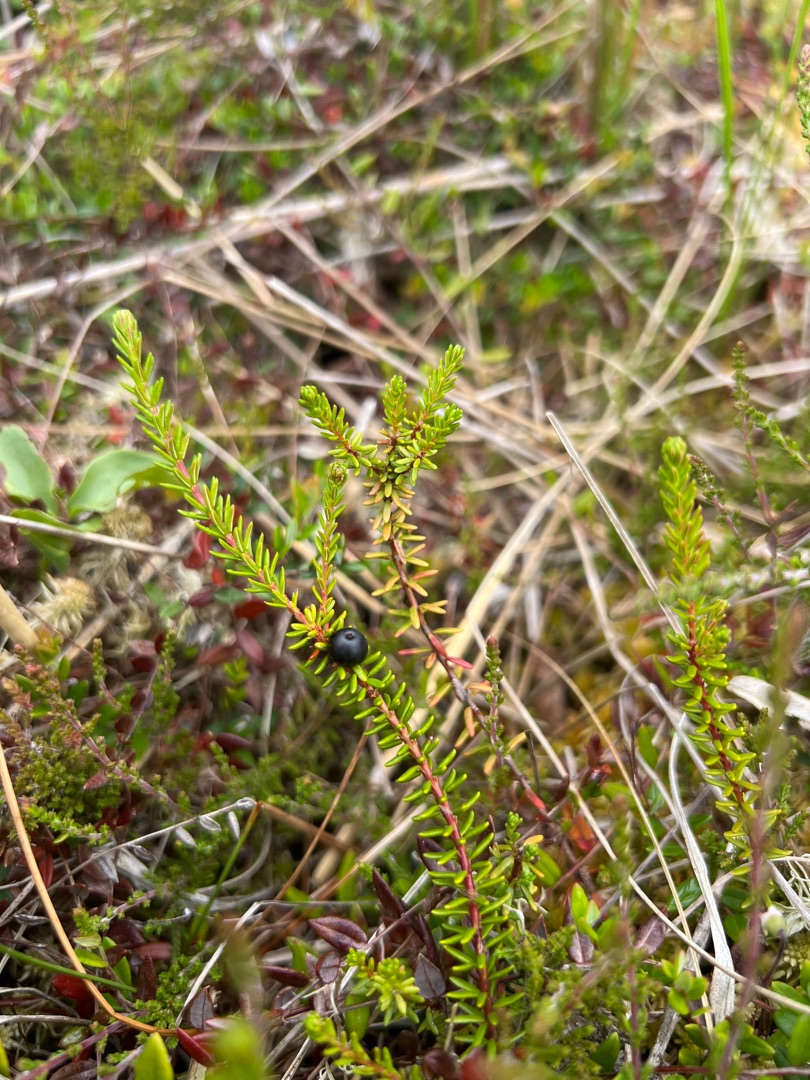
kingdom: Plantae
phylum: Tracheophyta
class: Magnoliopsida
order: Ericales
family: Ericaceae
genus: Empetrum
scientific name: Empetrum nigrum
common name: Revling
